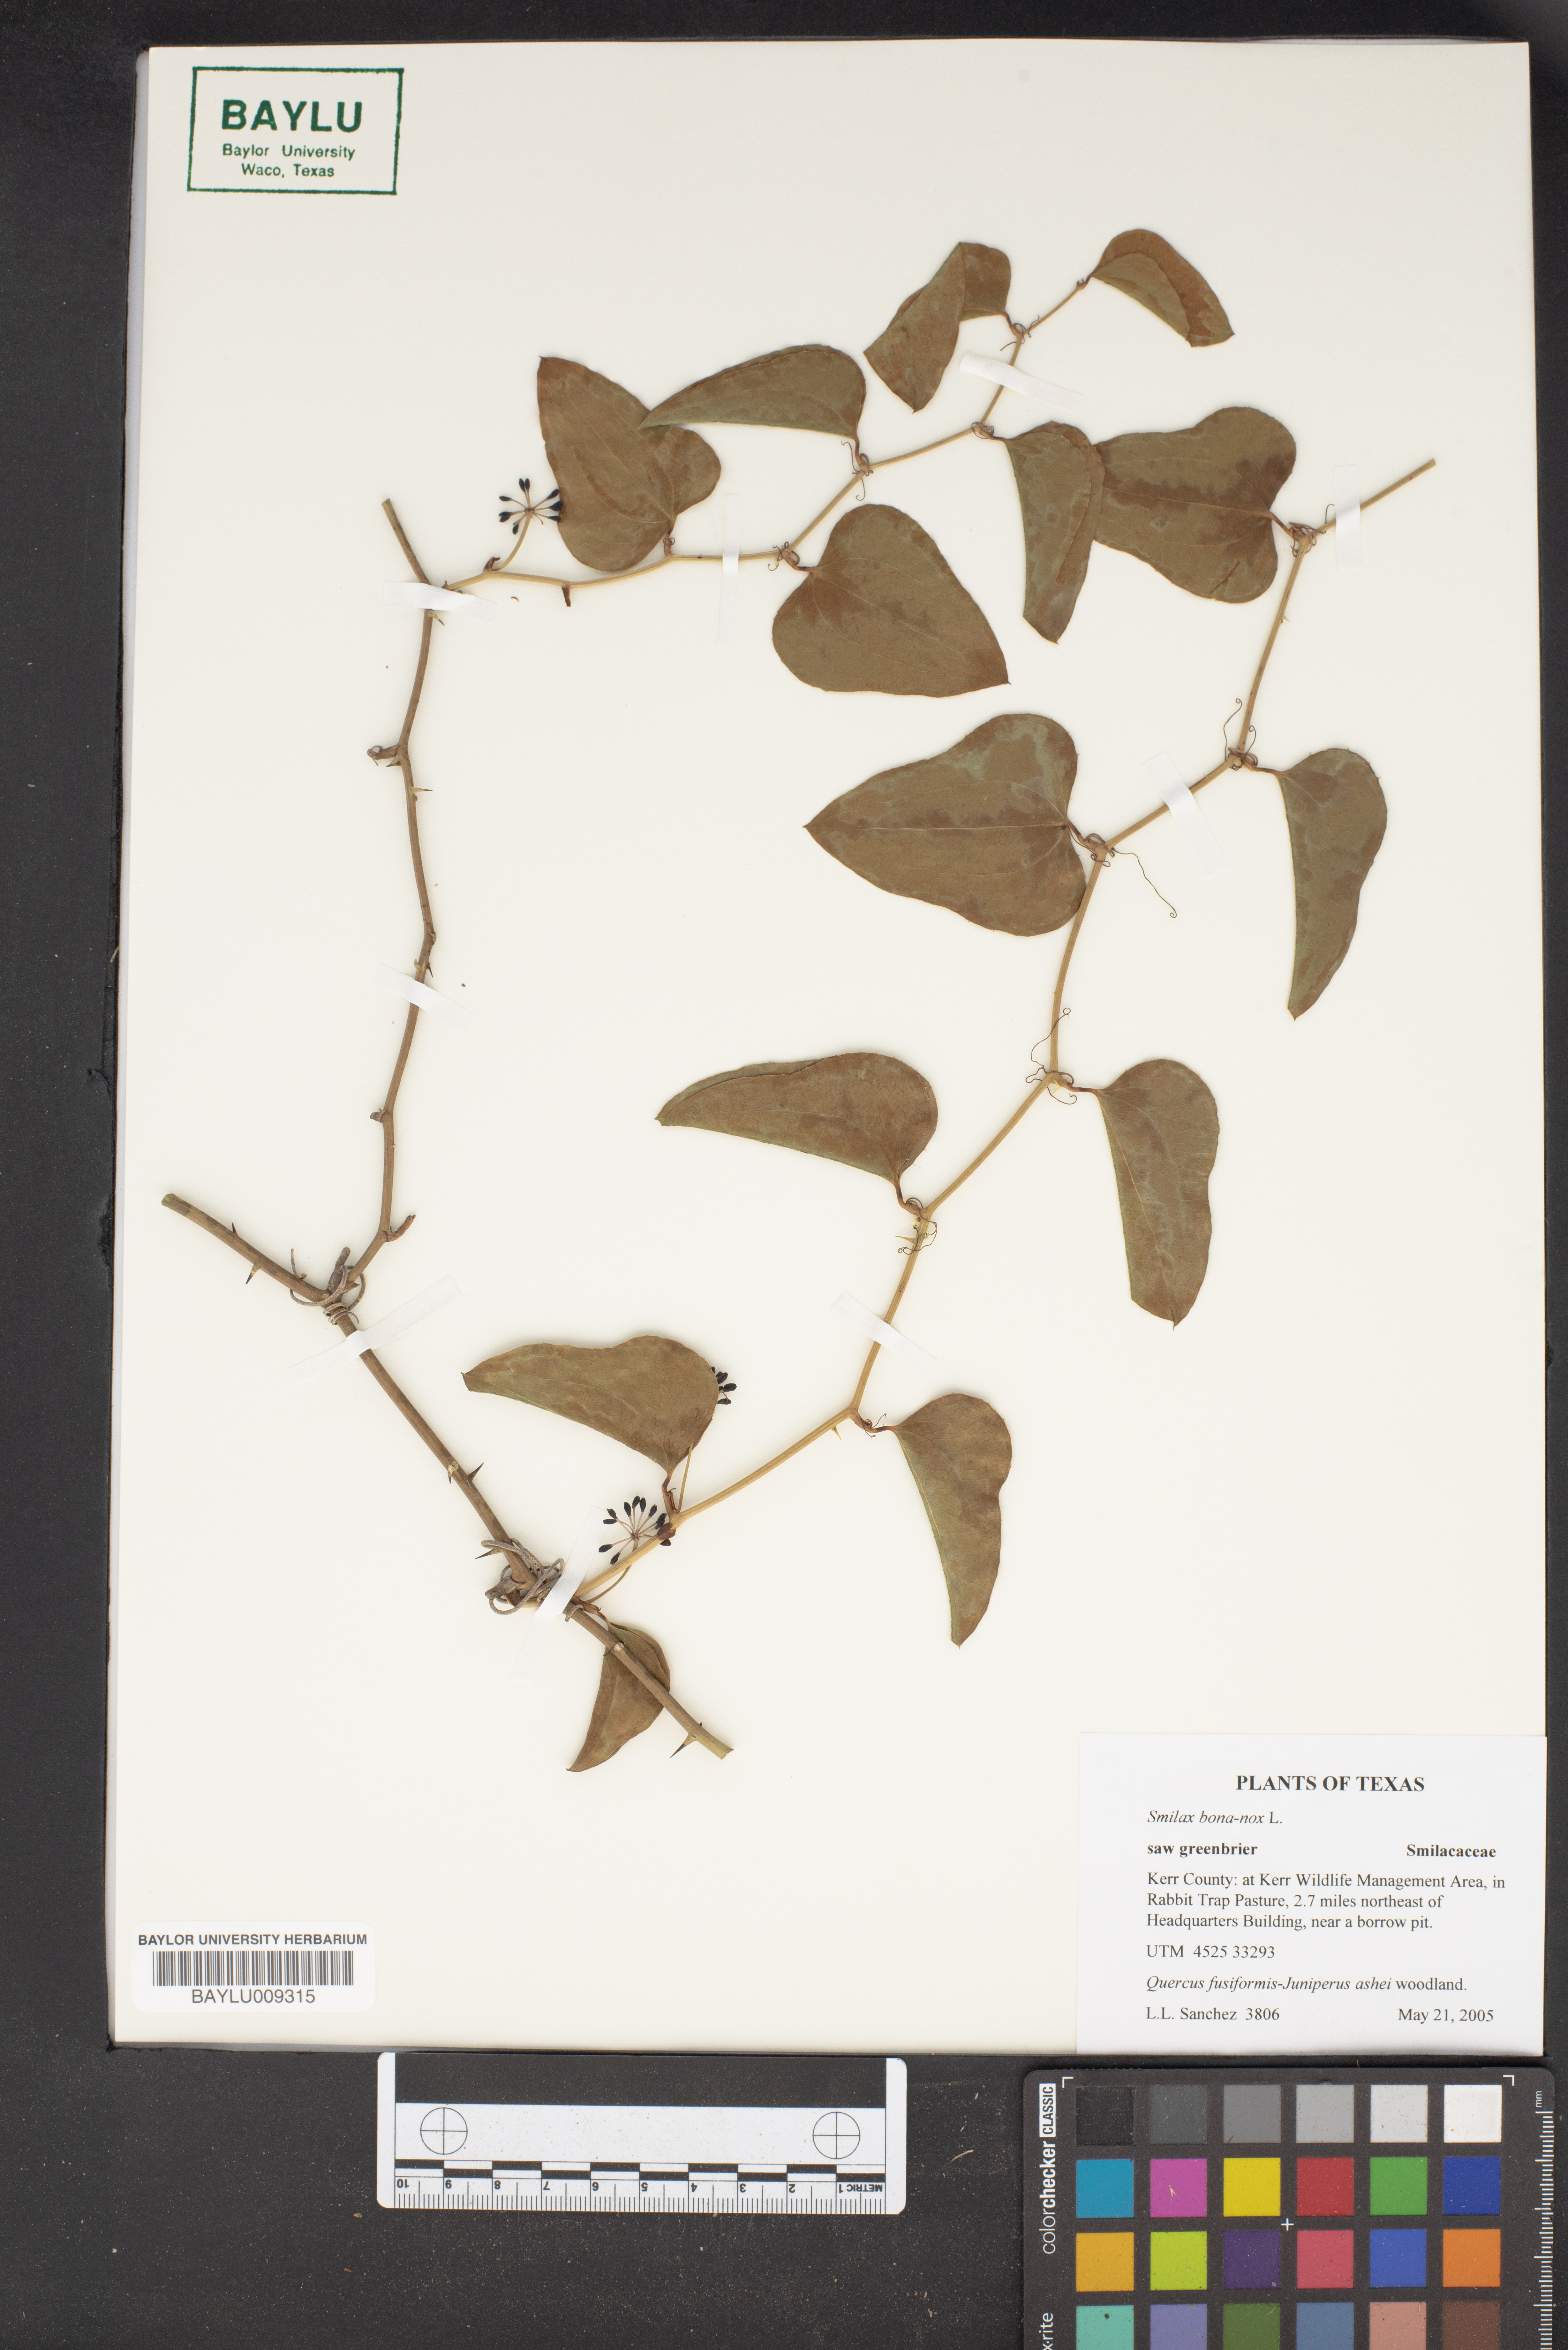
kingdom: Plantae
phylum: Tracheophyta
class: Liliopsida
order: Liliales
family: Smilacaceae
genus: Smilax
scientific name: Smilax bona-nox
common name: Catbrier
